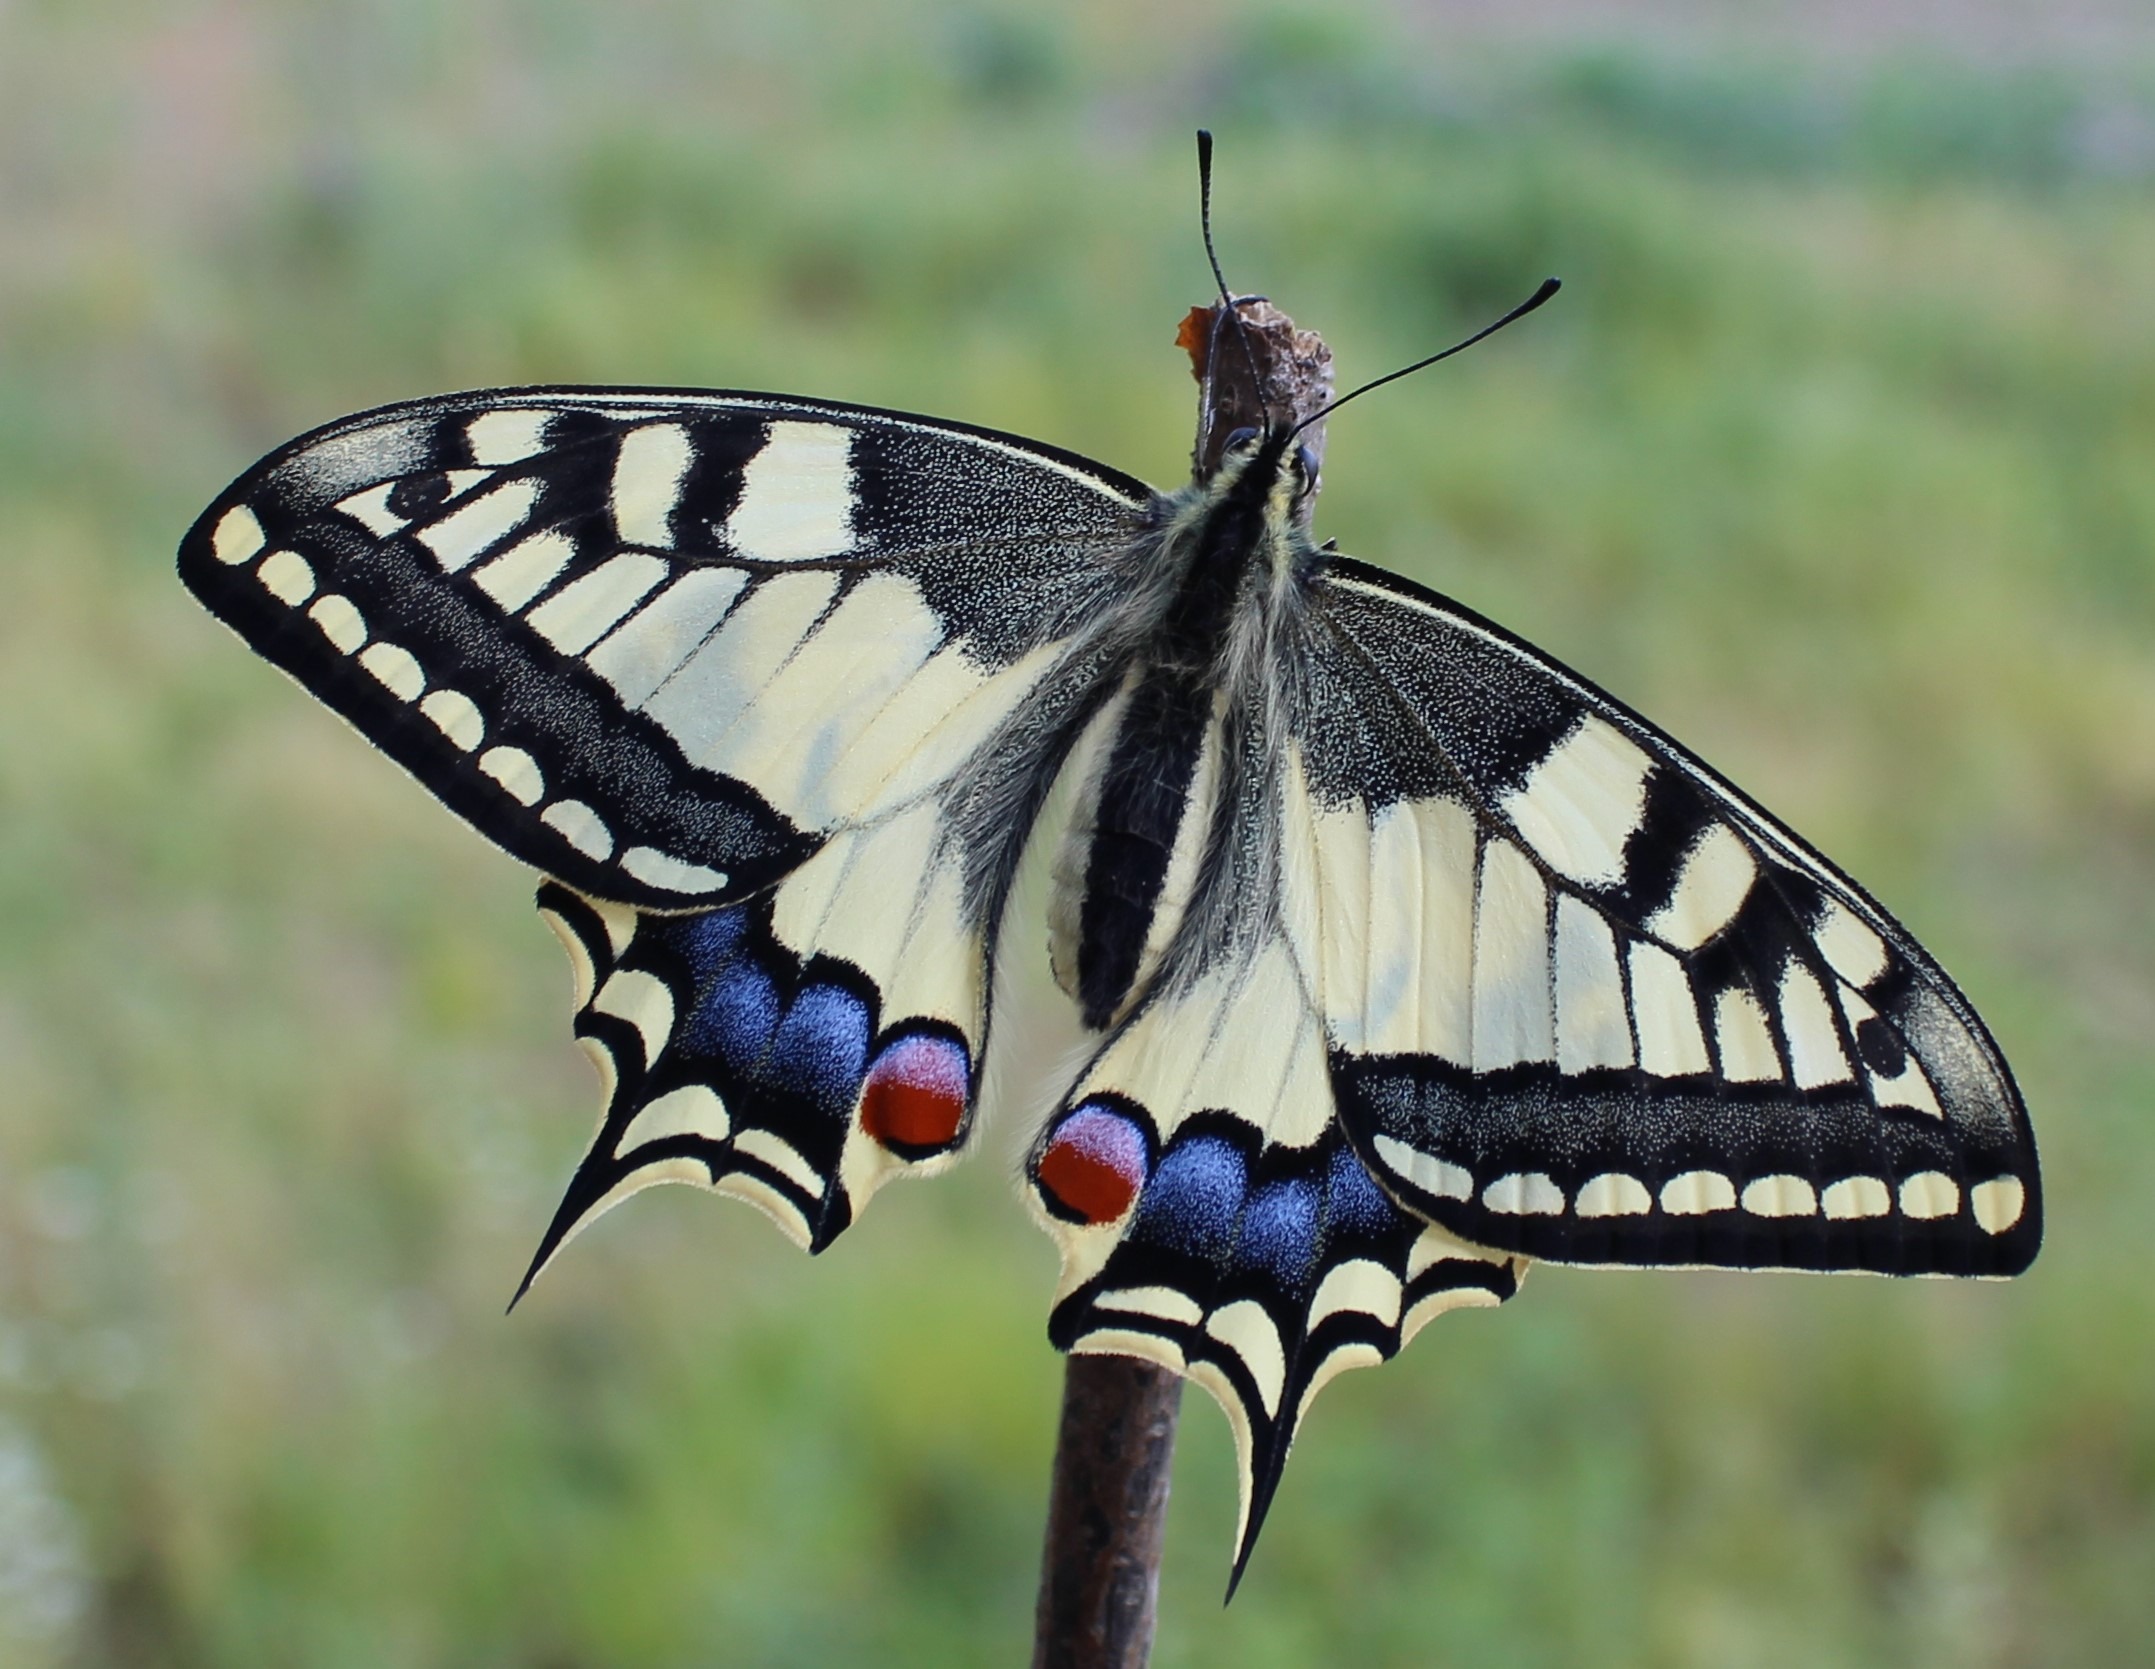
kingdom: Animalia
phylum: Arthropoda
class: Insecta
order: Lepidoptera
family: Papilionidae
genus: Papilio
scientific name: Papilio machaon
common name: Svalehale
